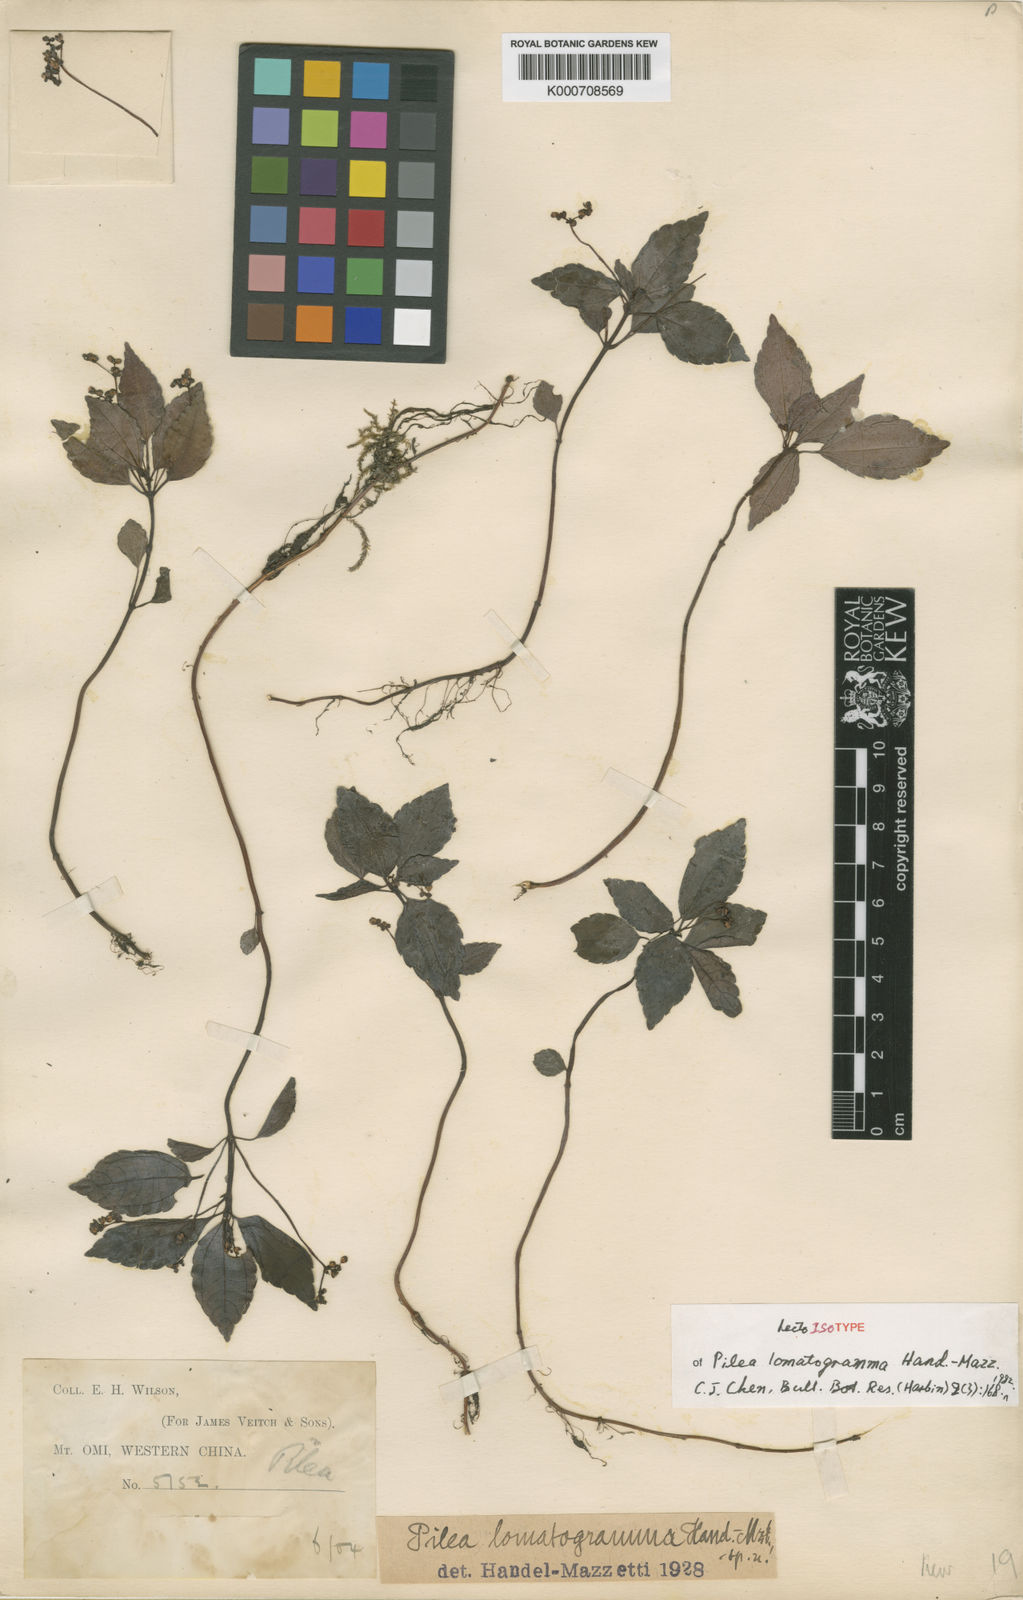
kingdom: Plantae
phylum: Tracheophyta
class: Magnoliopsida
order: Rosales
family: Urticaceae
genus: Pilea
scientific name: Pilea lomatogramma
